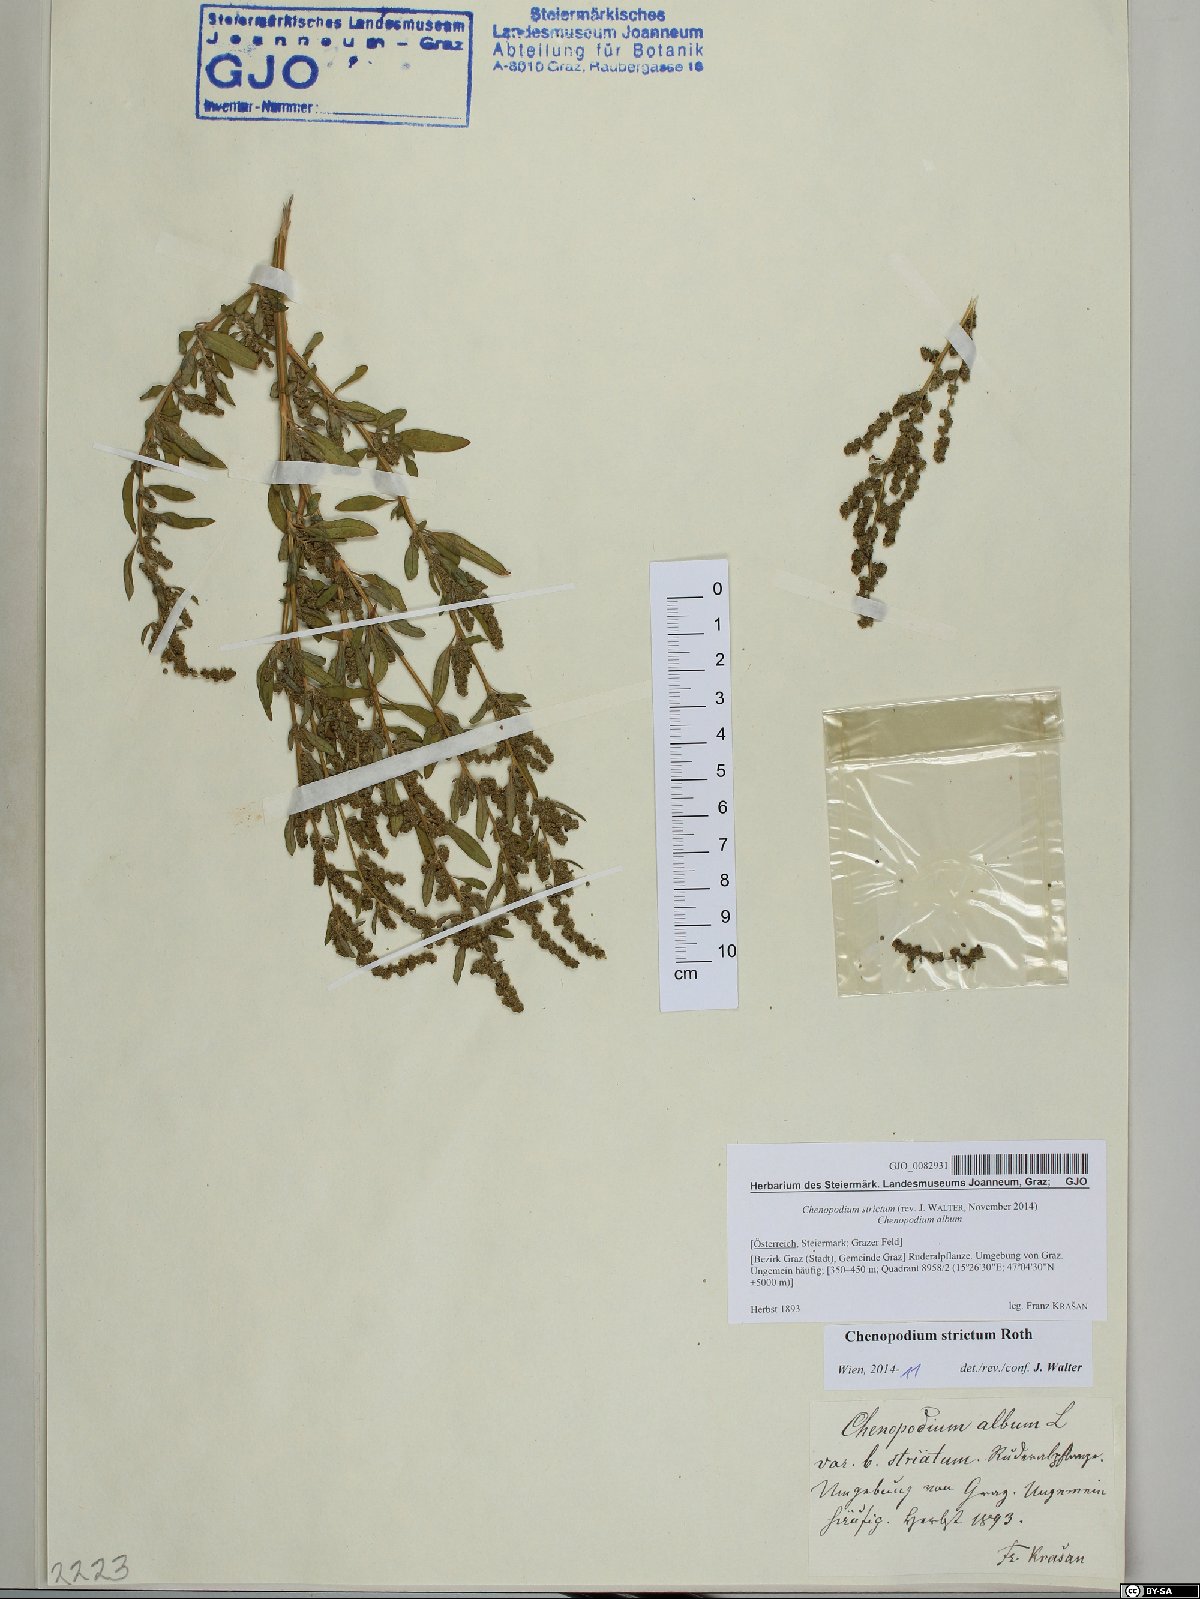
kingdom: Plantae
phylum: Tracheophyta
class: Magnoliopsida
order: Caryophyllales
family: Amaranthaceae
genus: Chenopodium
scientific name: Chenopodium album
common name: Fat-hen
